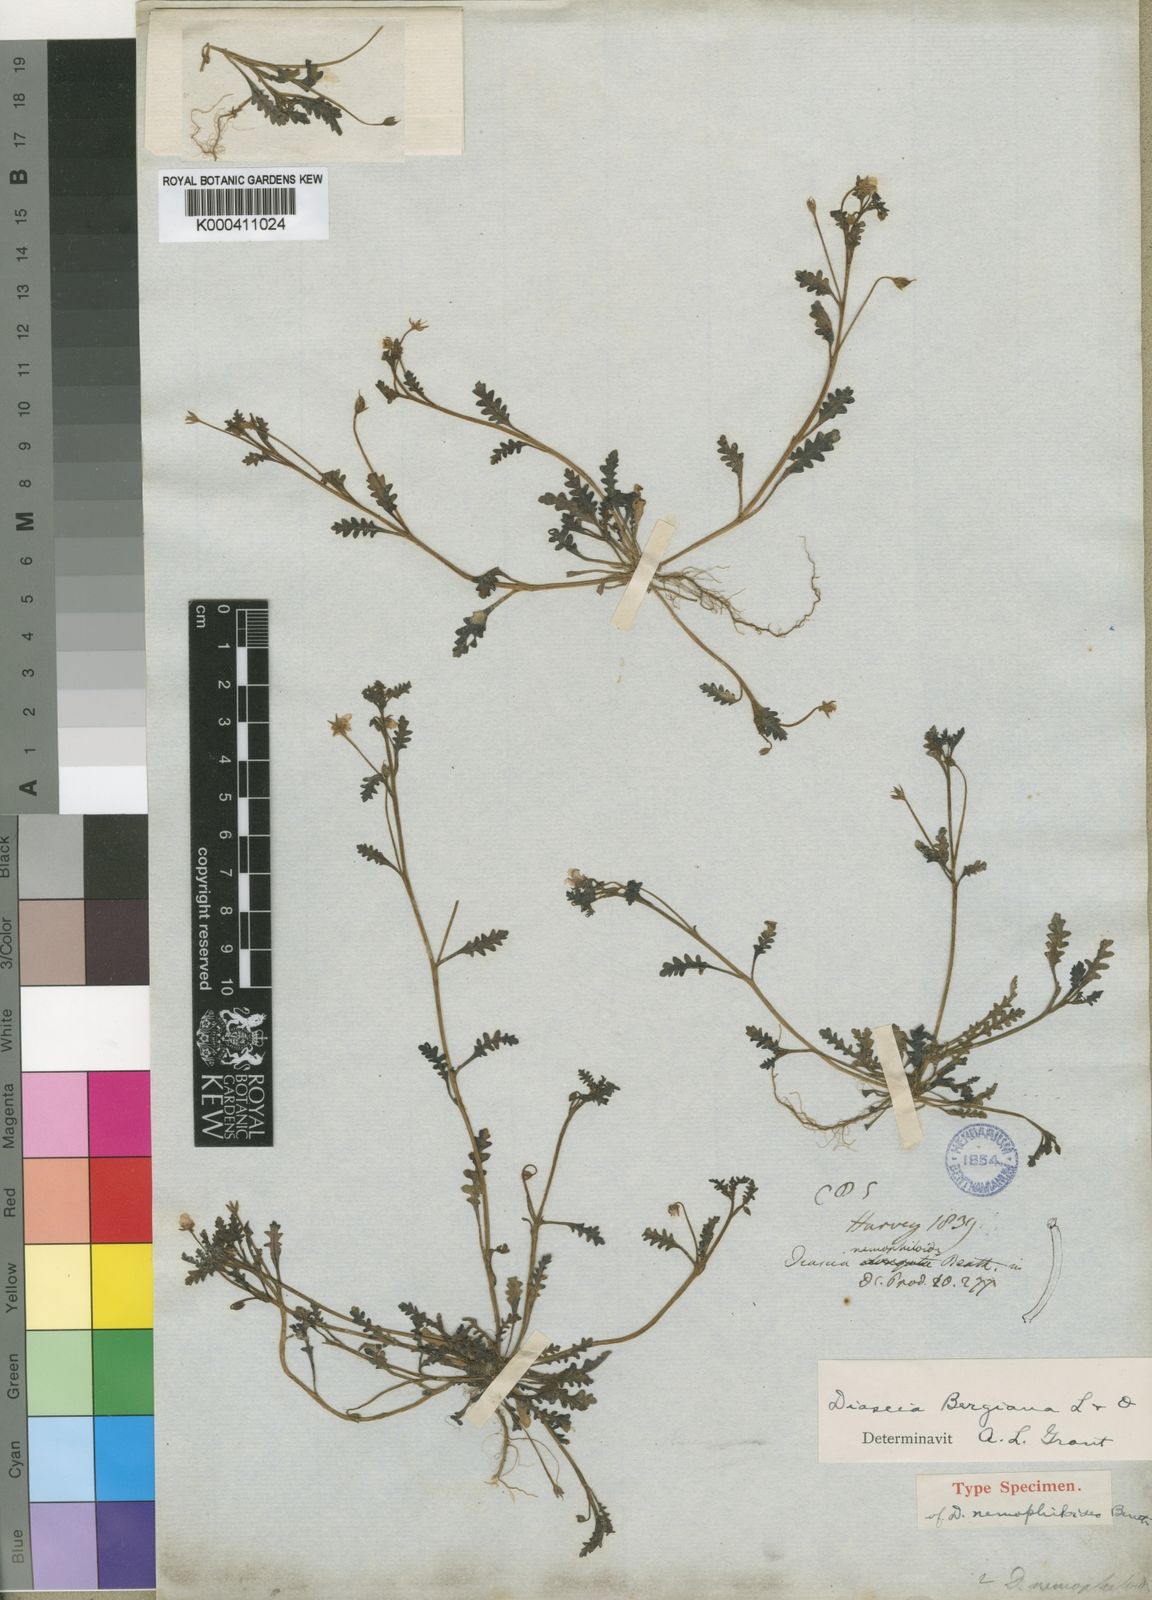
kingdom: Plantae
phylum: Tracheophyta
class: Magnoliopsida
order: Lamiales
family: Scrophulariaceae
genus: Diascia
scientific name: Diascia bergiana
